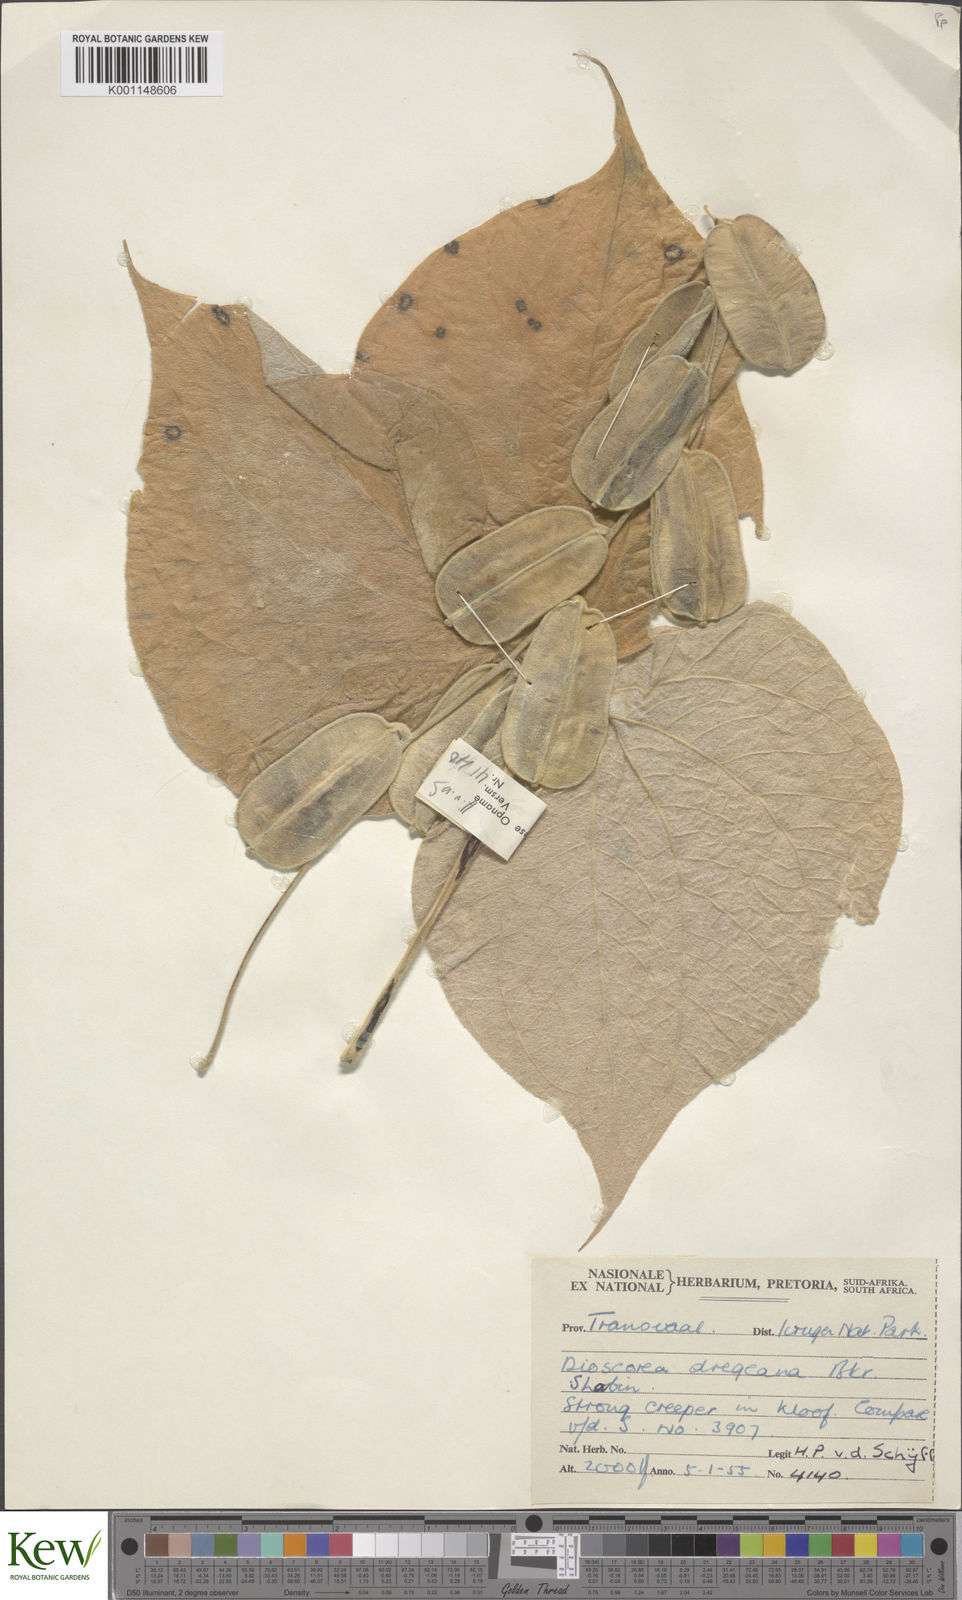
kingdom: Plantae
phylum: Tracheophyta
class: Liliopsida
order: Dioscoreales
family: Dioscoreaceae
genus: Dioscorea
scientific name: Dioscorea dregeana
